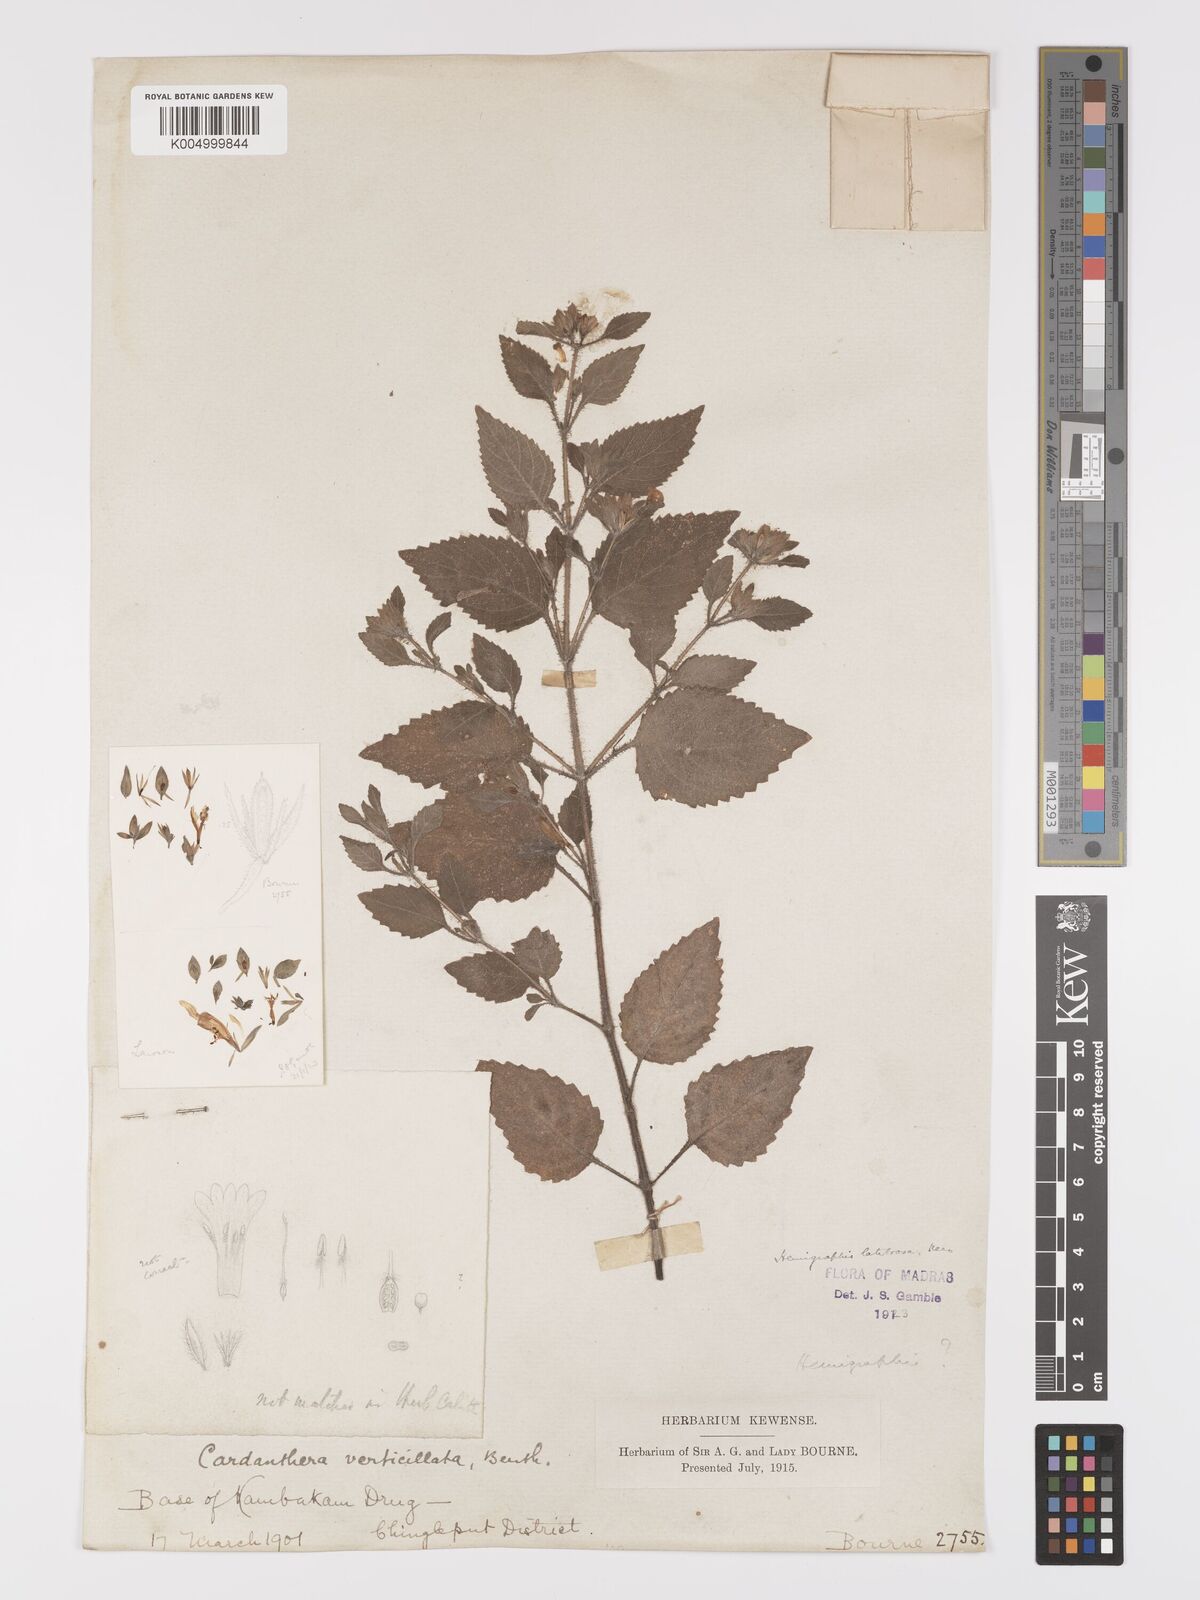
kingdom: Plantae
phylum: Tracheophyta
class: Magnoliopsida
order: Lamiales
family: Acanthaceae
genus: Strobilanthes
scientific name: Strobilanthes pavala
